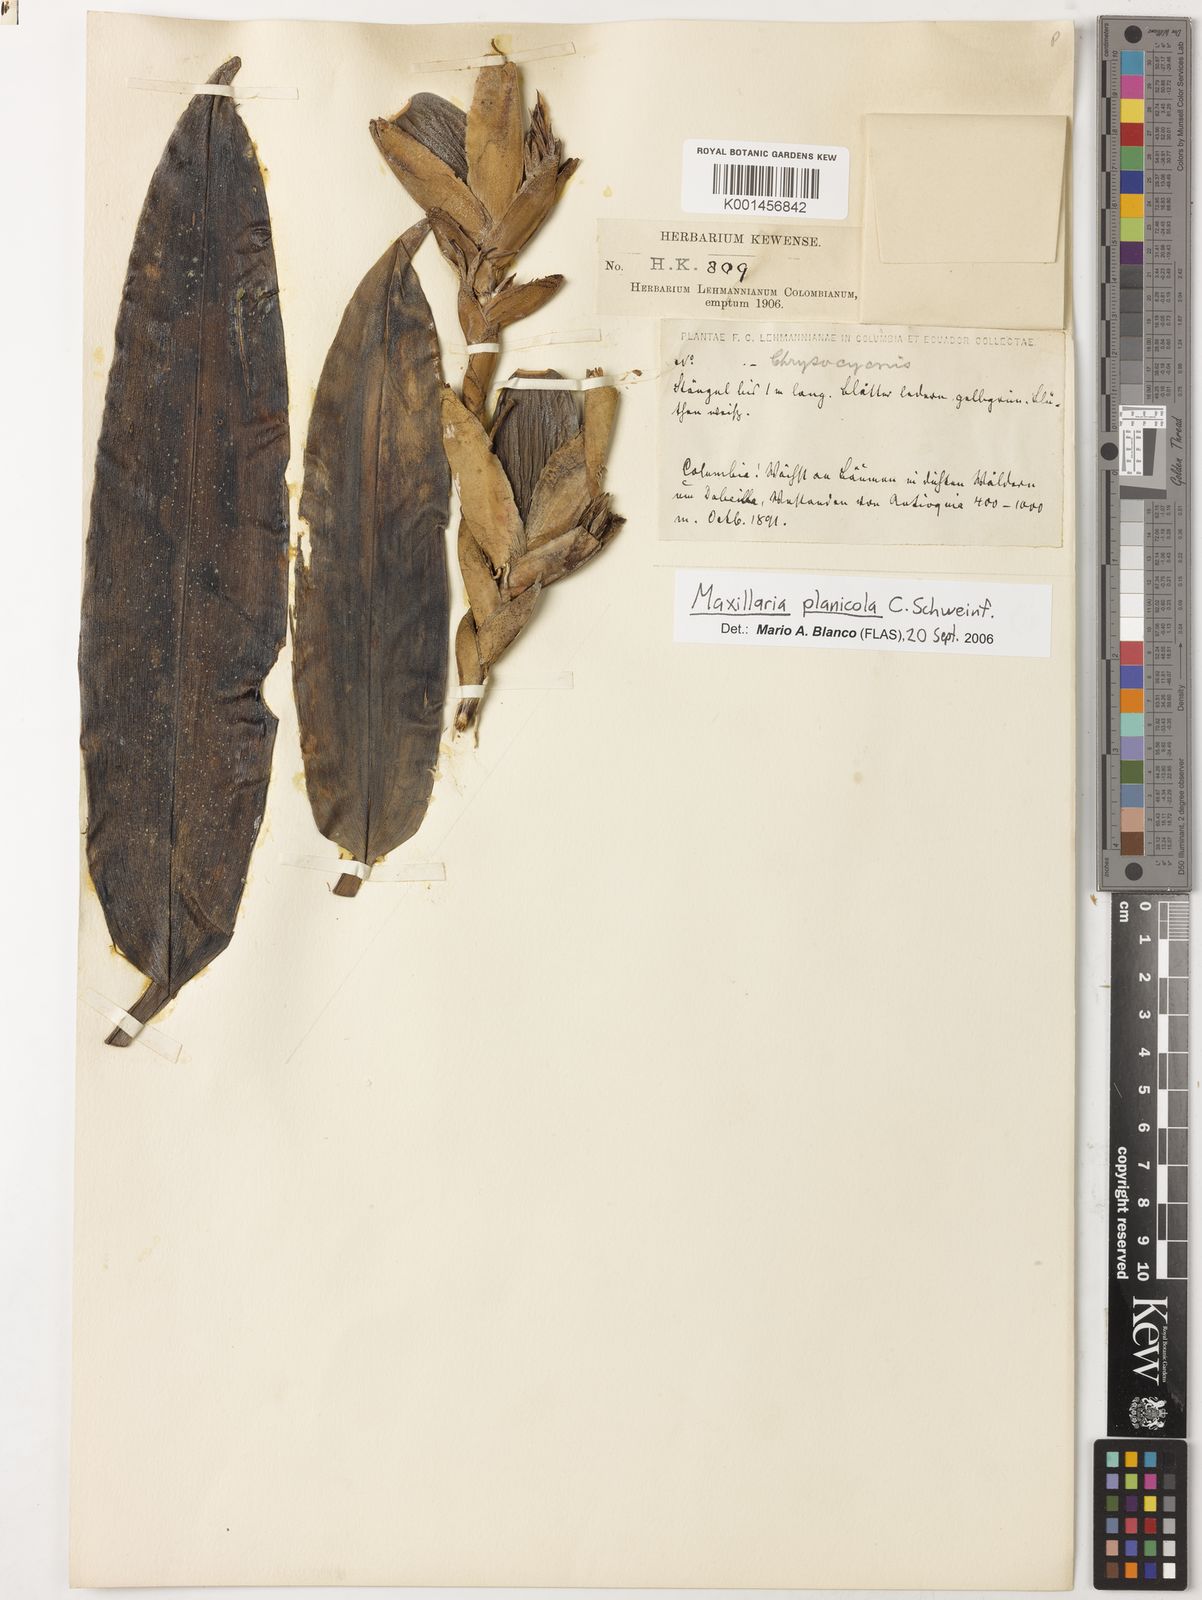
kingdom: Plantae
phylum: Tracheophyta
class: Liliopsida
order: Asparagales
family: Orchidaceae
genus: Maxillaria
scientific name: Maxillaria planicola
